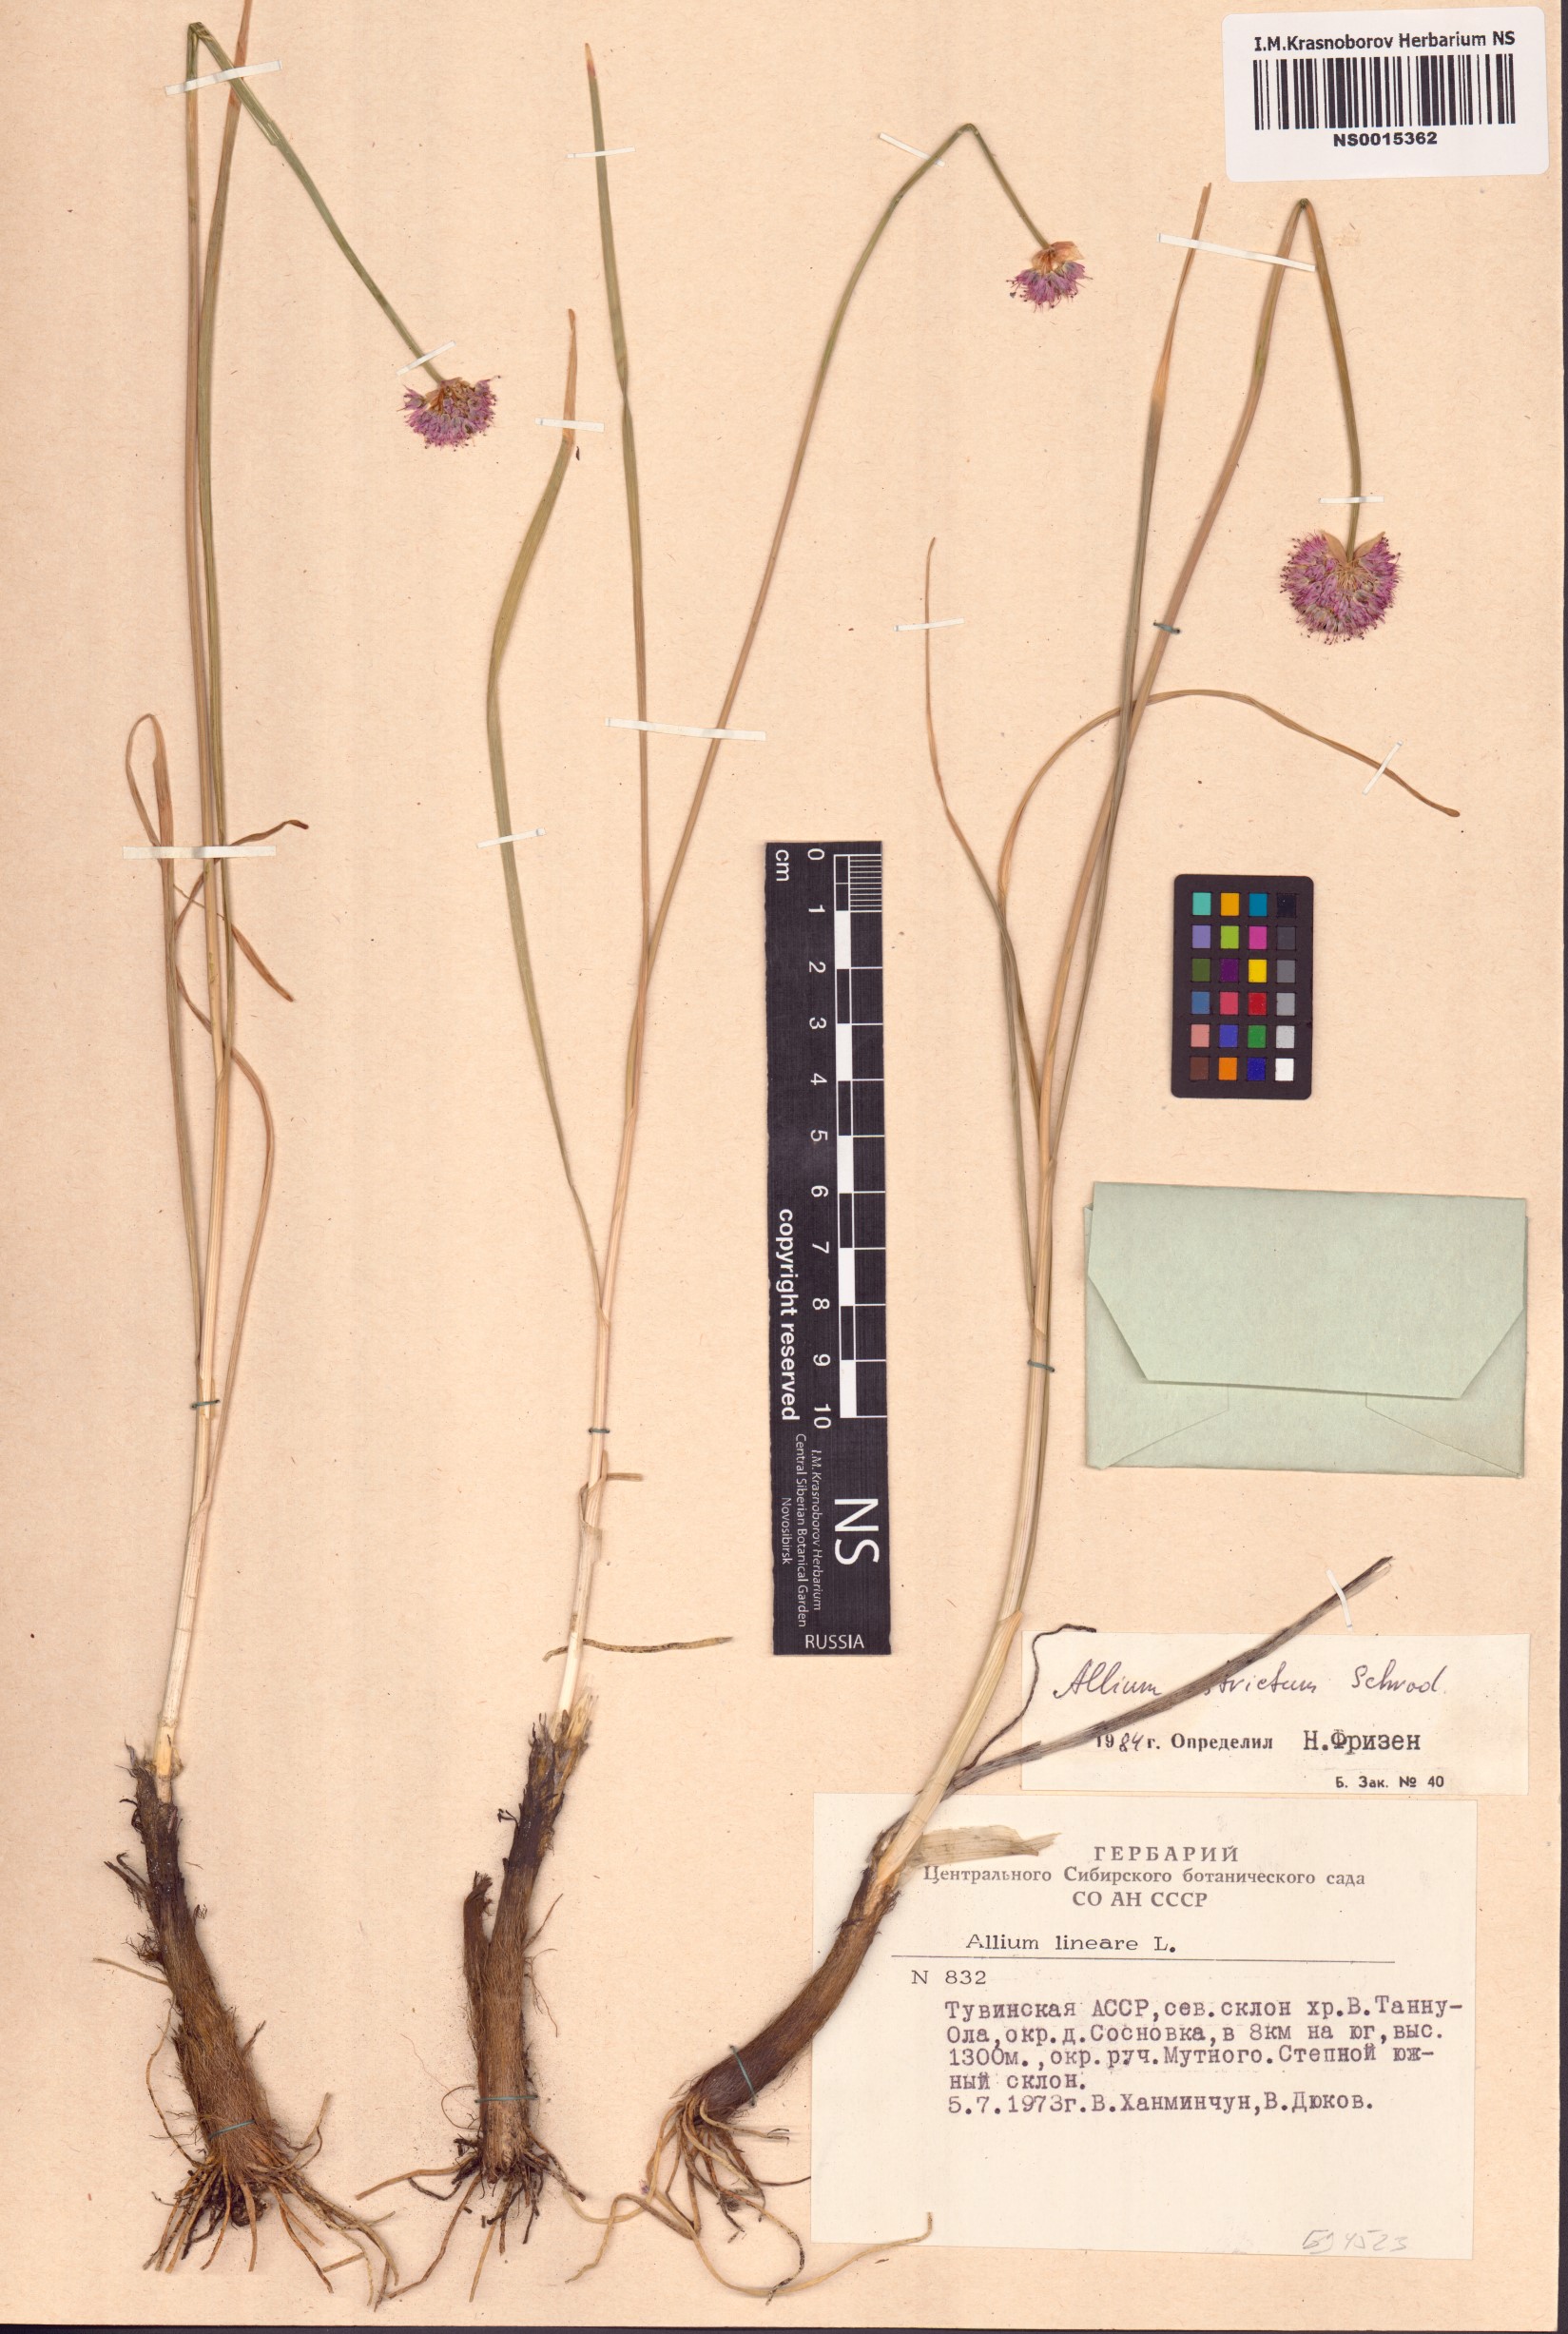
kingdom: Plantae
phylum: Tracheophyta
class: Liliopsida
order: Asparagales
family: Amaryllidaceae
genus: Allium
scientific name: Allium strictum
